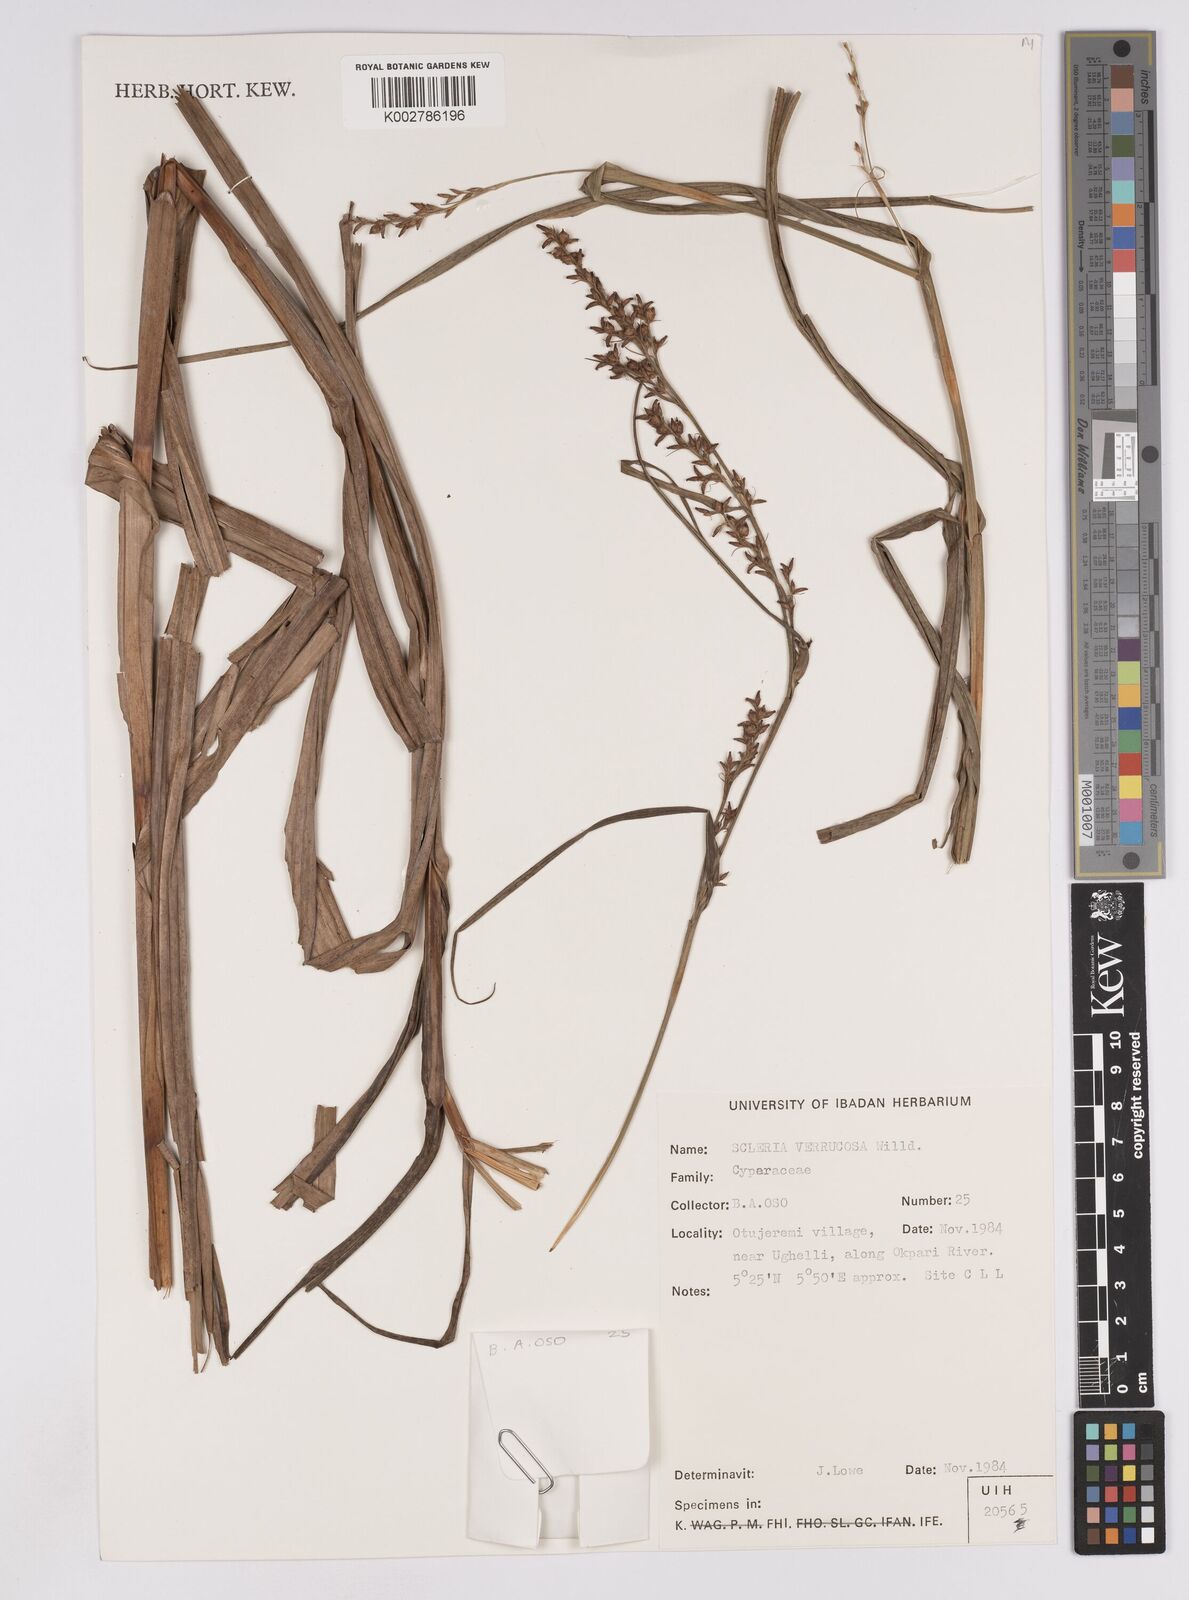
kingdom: Plantae
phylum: Tracheophyta
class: Liliopsida
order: Poales
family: Cyperaceae
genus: Scleria
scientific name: Scleria verrucosa
